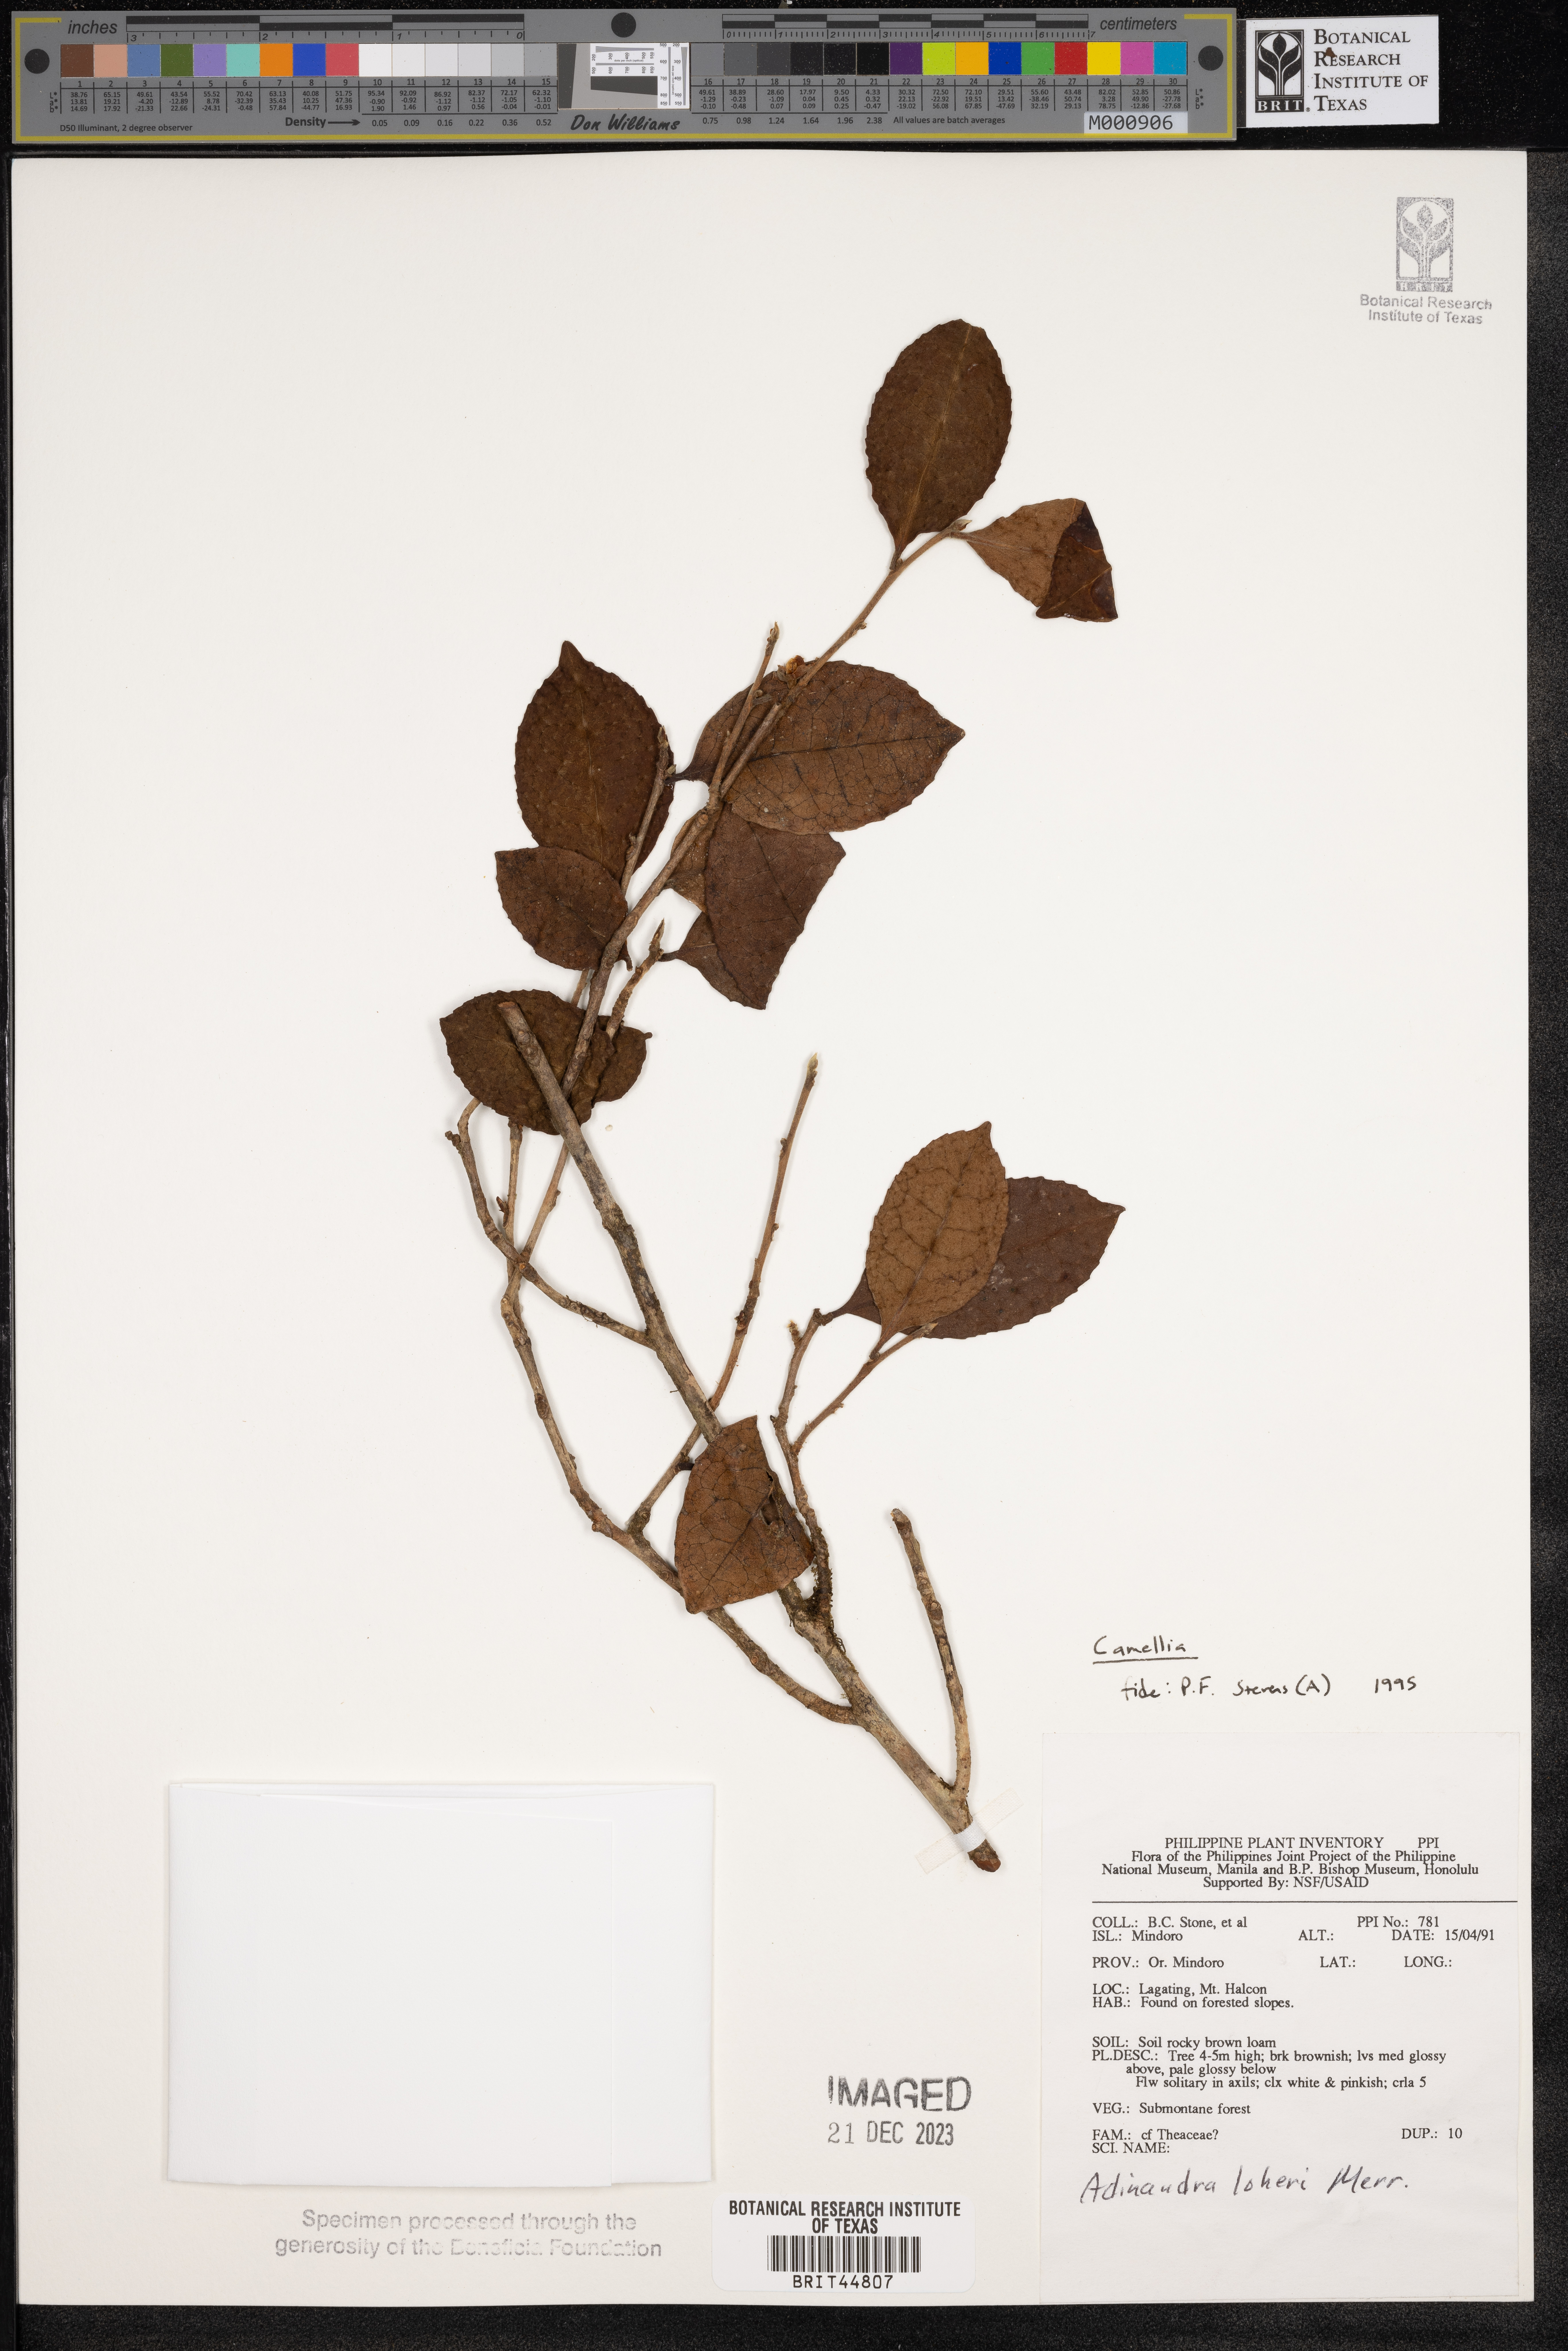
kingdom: Plantae
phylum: Tracheophyta
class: Magnoliopsida
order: Ericales
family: Theaceae
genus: Camellia
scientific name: Camellia
